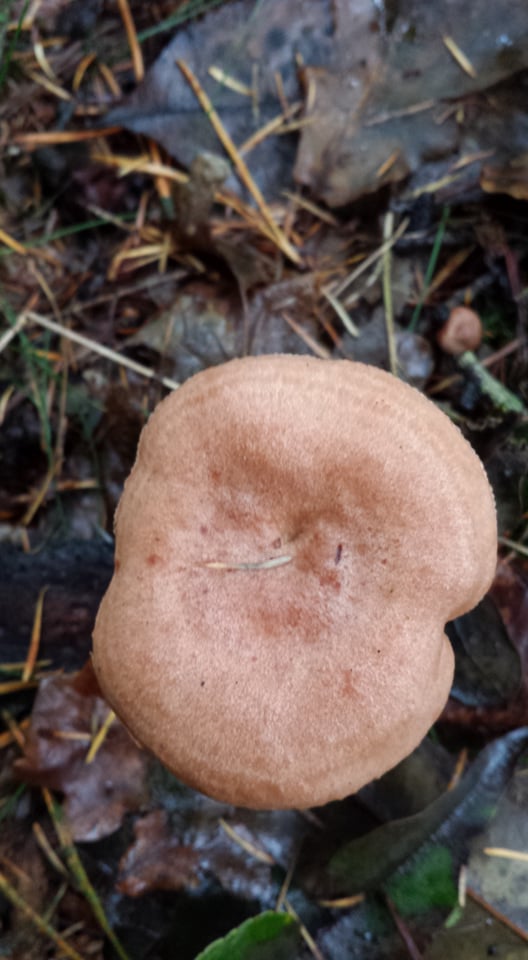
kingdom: Fungi
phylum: Basidiomycota
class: Agaricomycetes
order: Russulales
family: Russulaceae
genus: Lactarius
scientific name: Lactarius quietus
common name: ege-mælkehat
